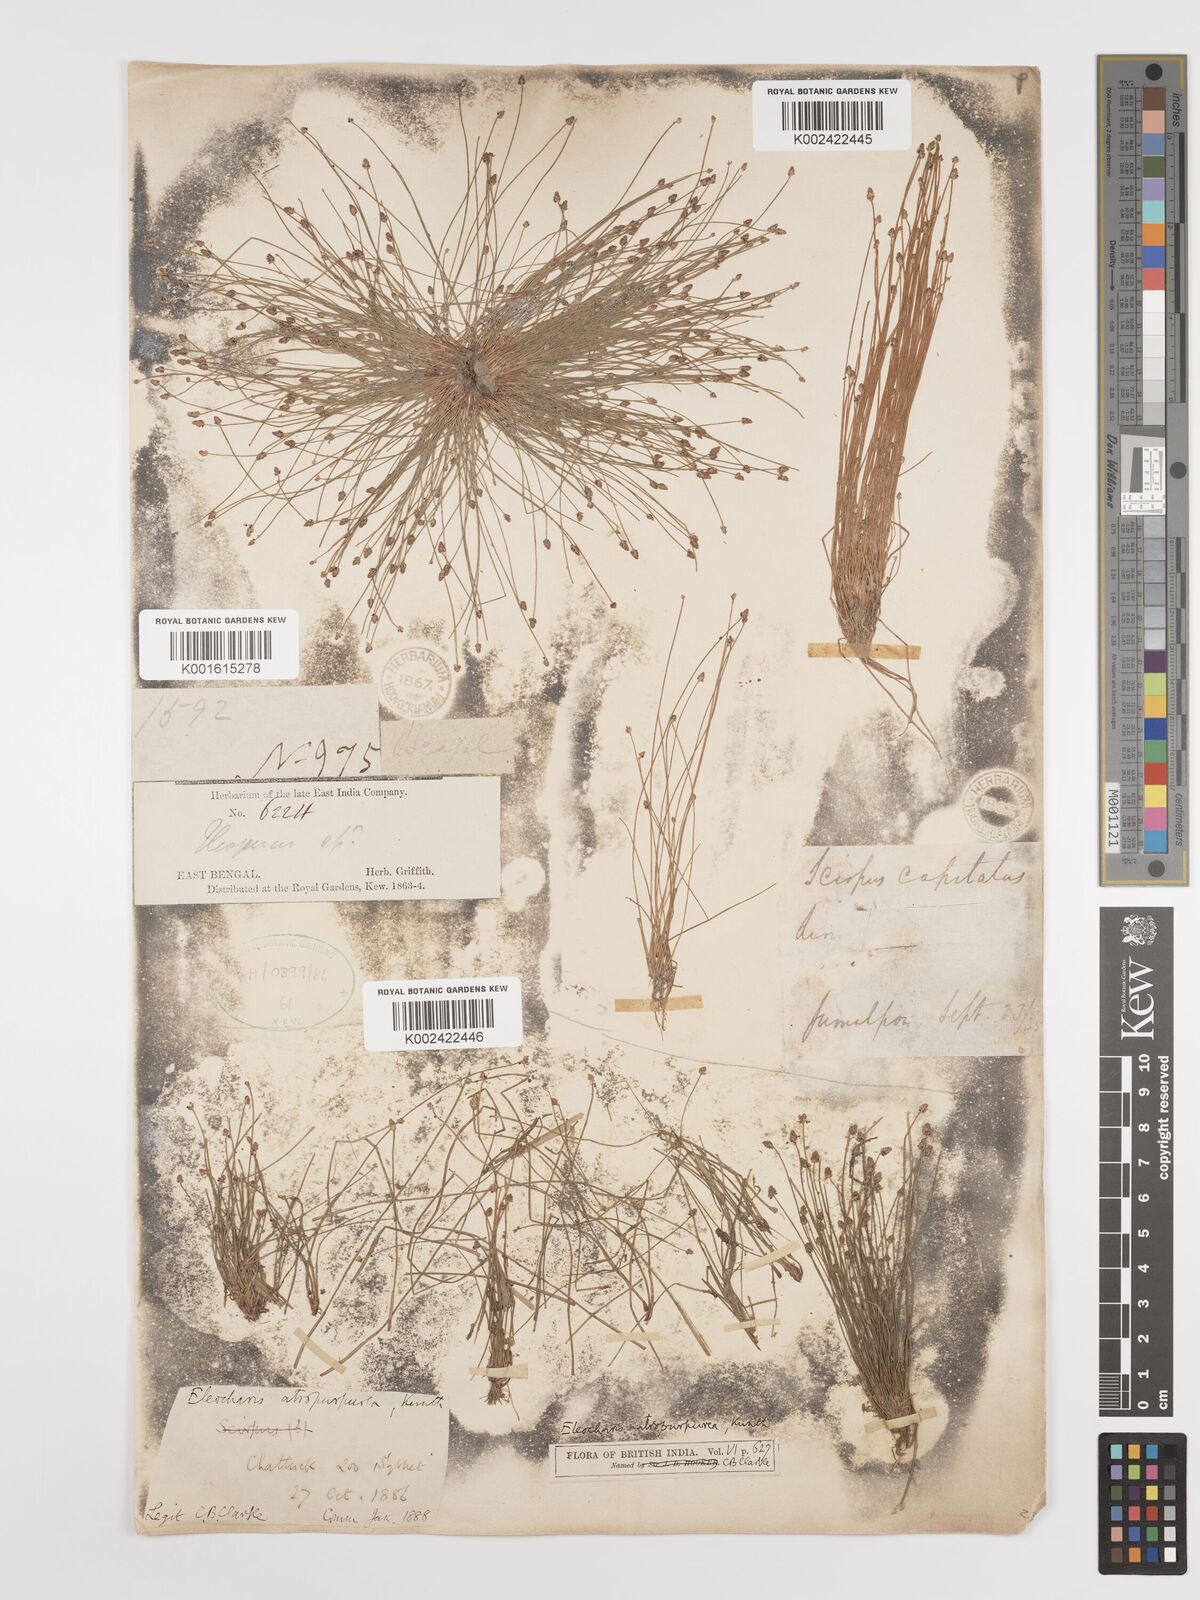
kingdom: Plantae
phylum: Tracheophyta
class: Liliopsida
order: Poales
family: Cyperaceae
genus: Eleocharis
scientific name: Eleocharis atropurpurea
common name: Purple spikerush
